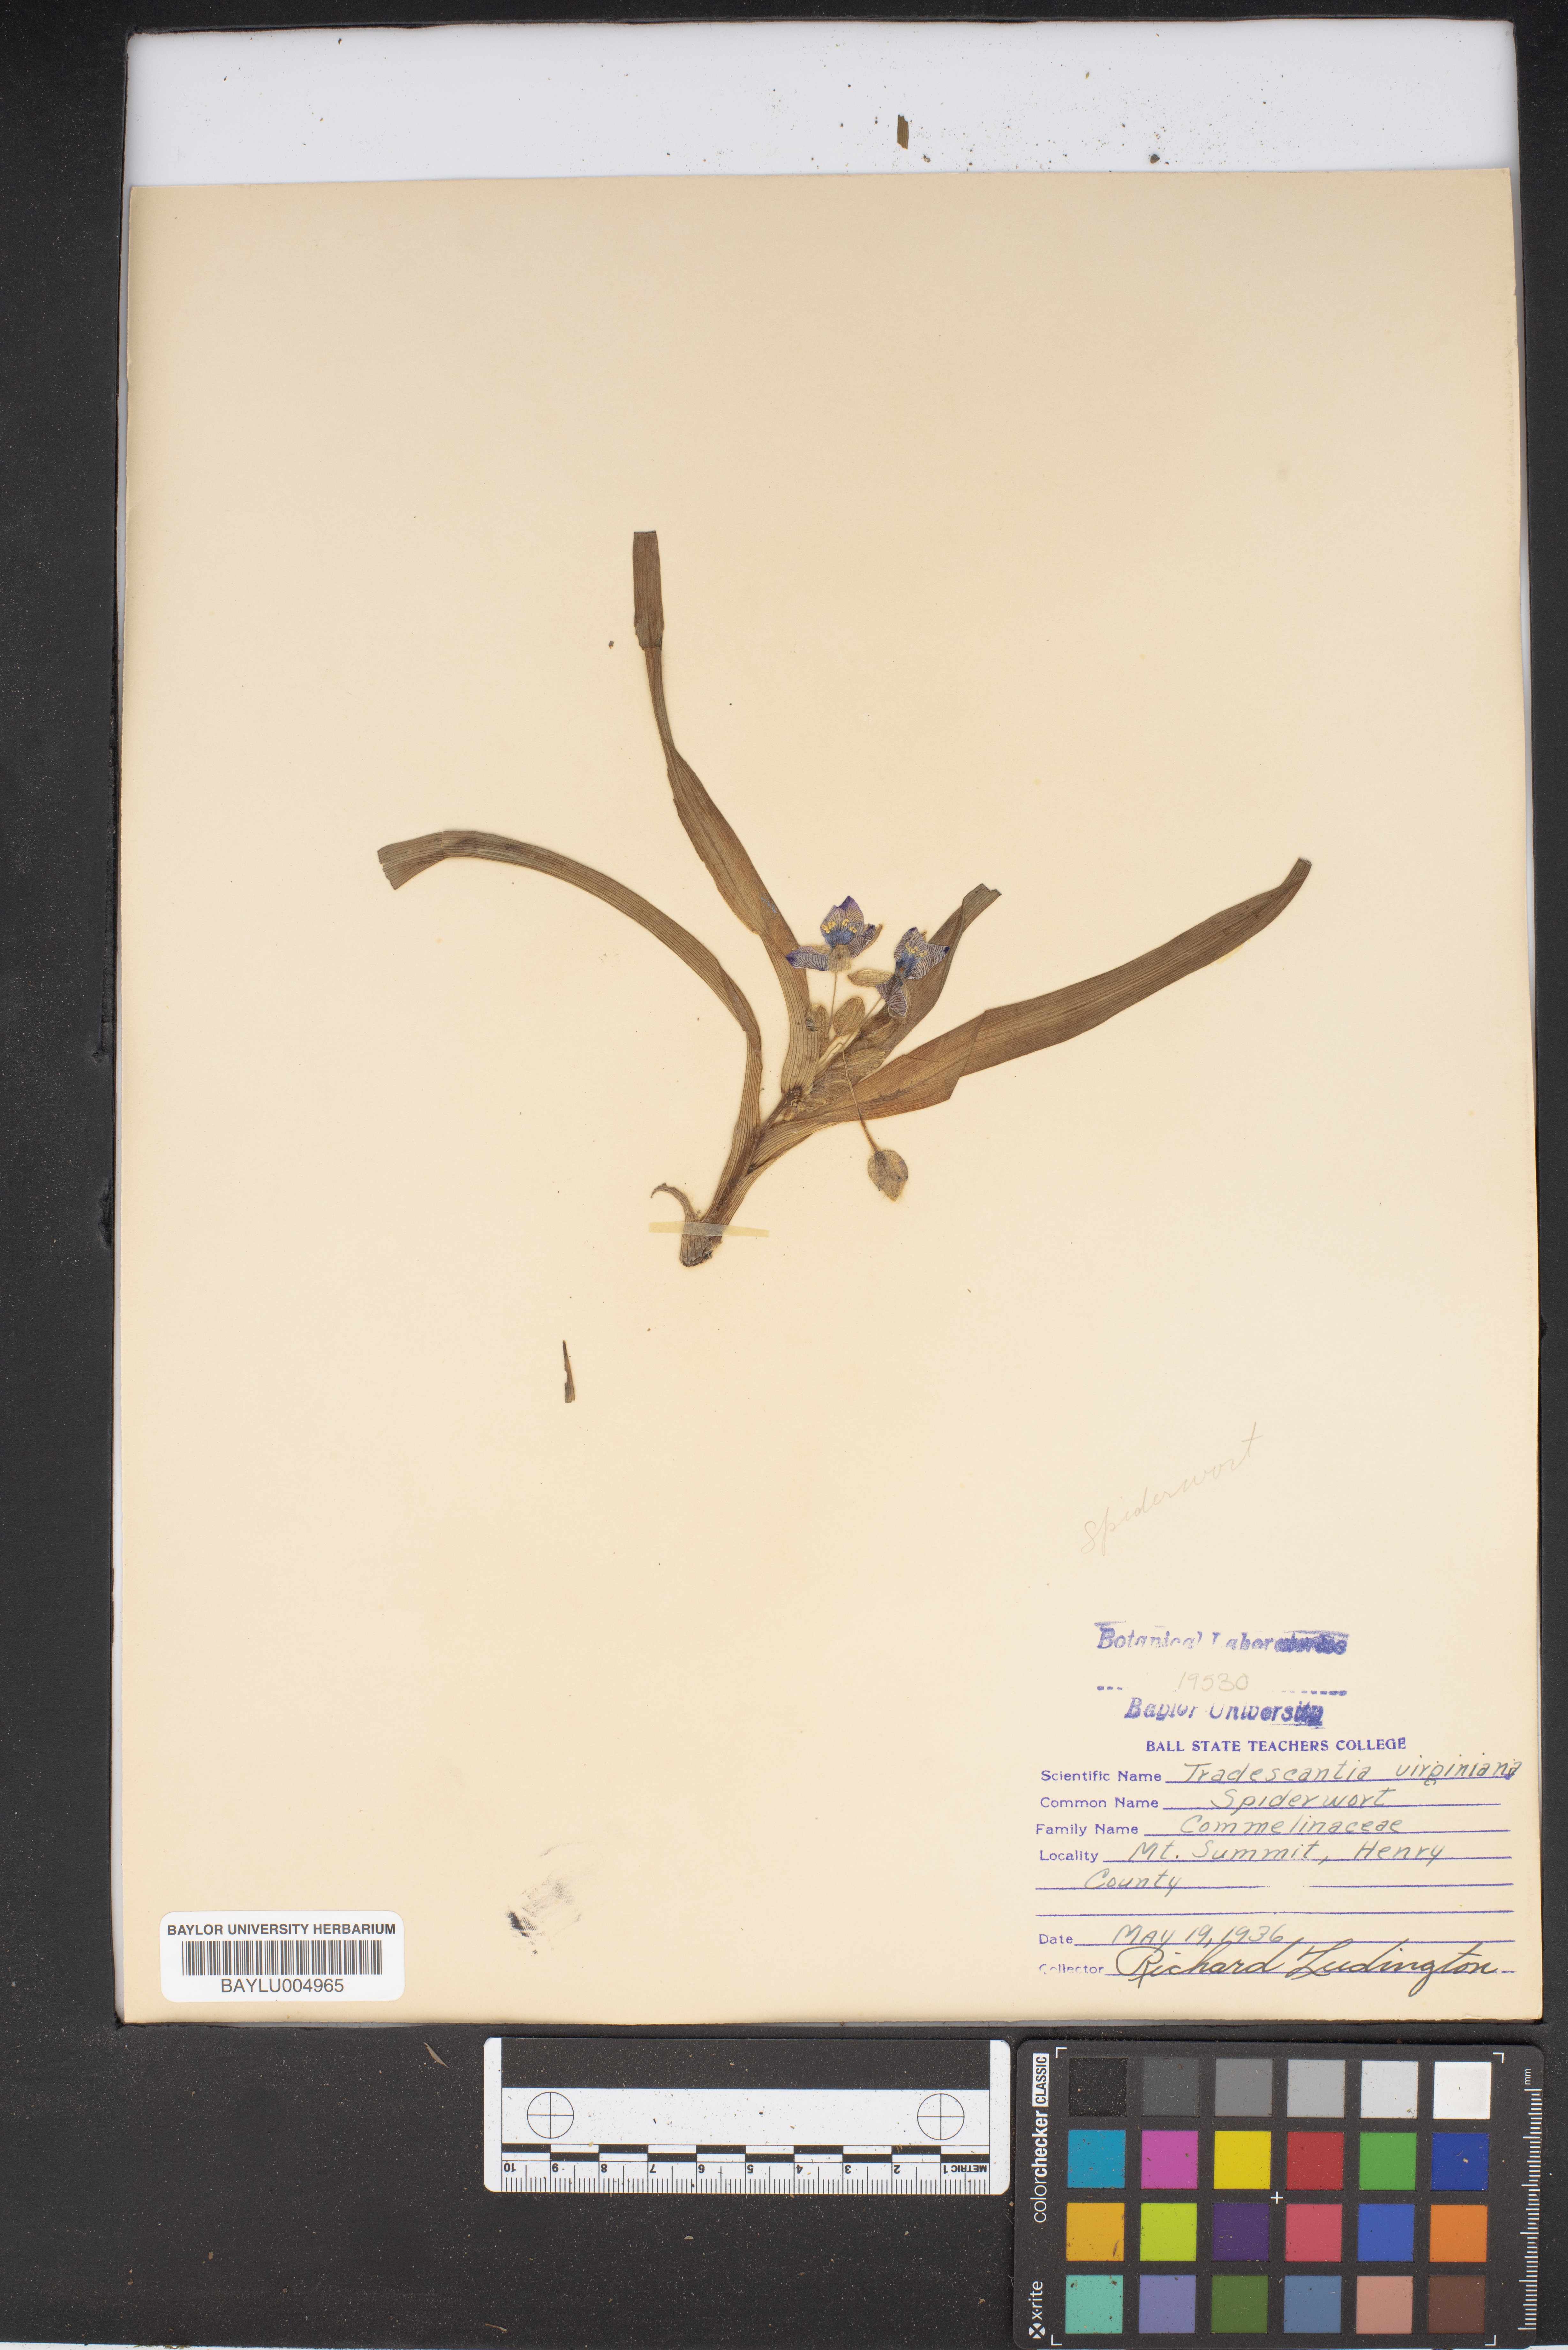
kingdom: Plantae
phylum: Tracheophyta
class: Liliopsida
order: Commelinales
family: Commelinaceae
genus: Callisia
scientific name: Callisia
